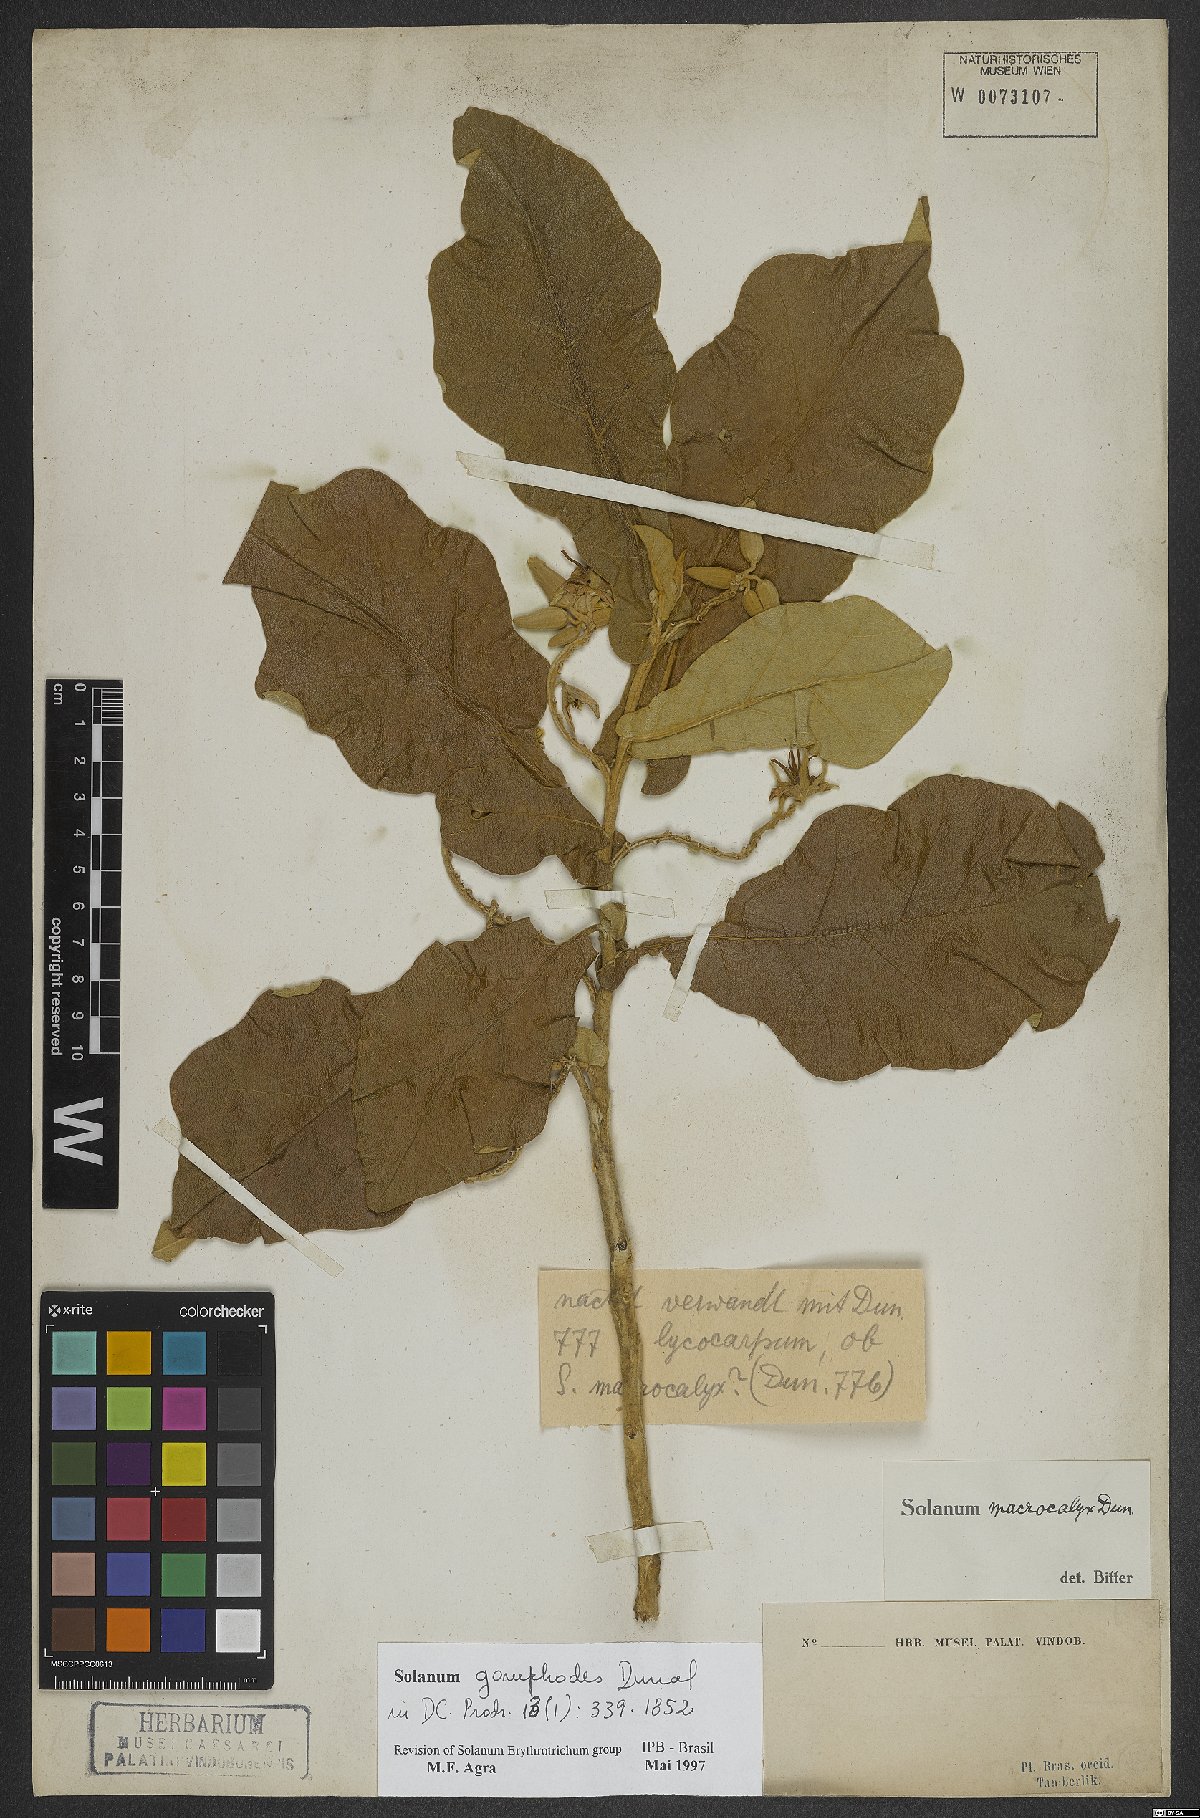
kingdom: Plantae
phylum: Tracheophyta
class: Magnoliopsida
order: Solanales
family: Solanaceae
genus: Solanum
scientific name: Solanum gomphodes
